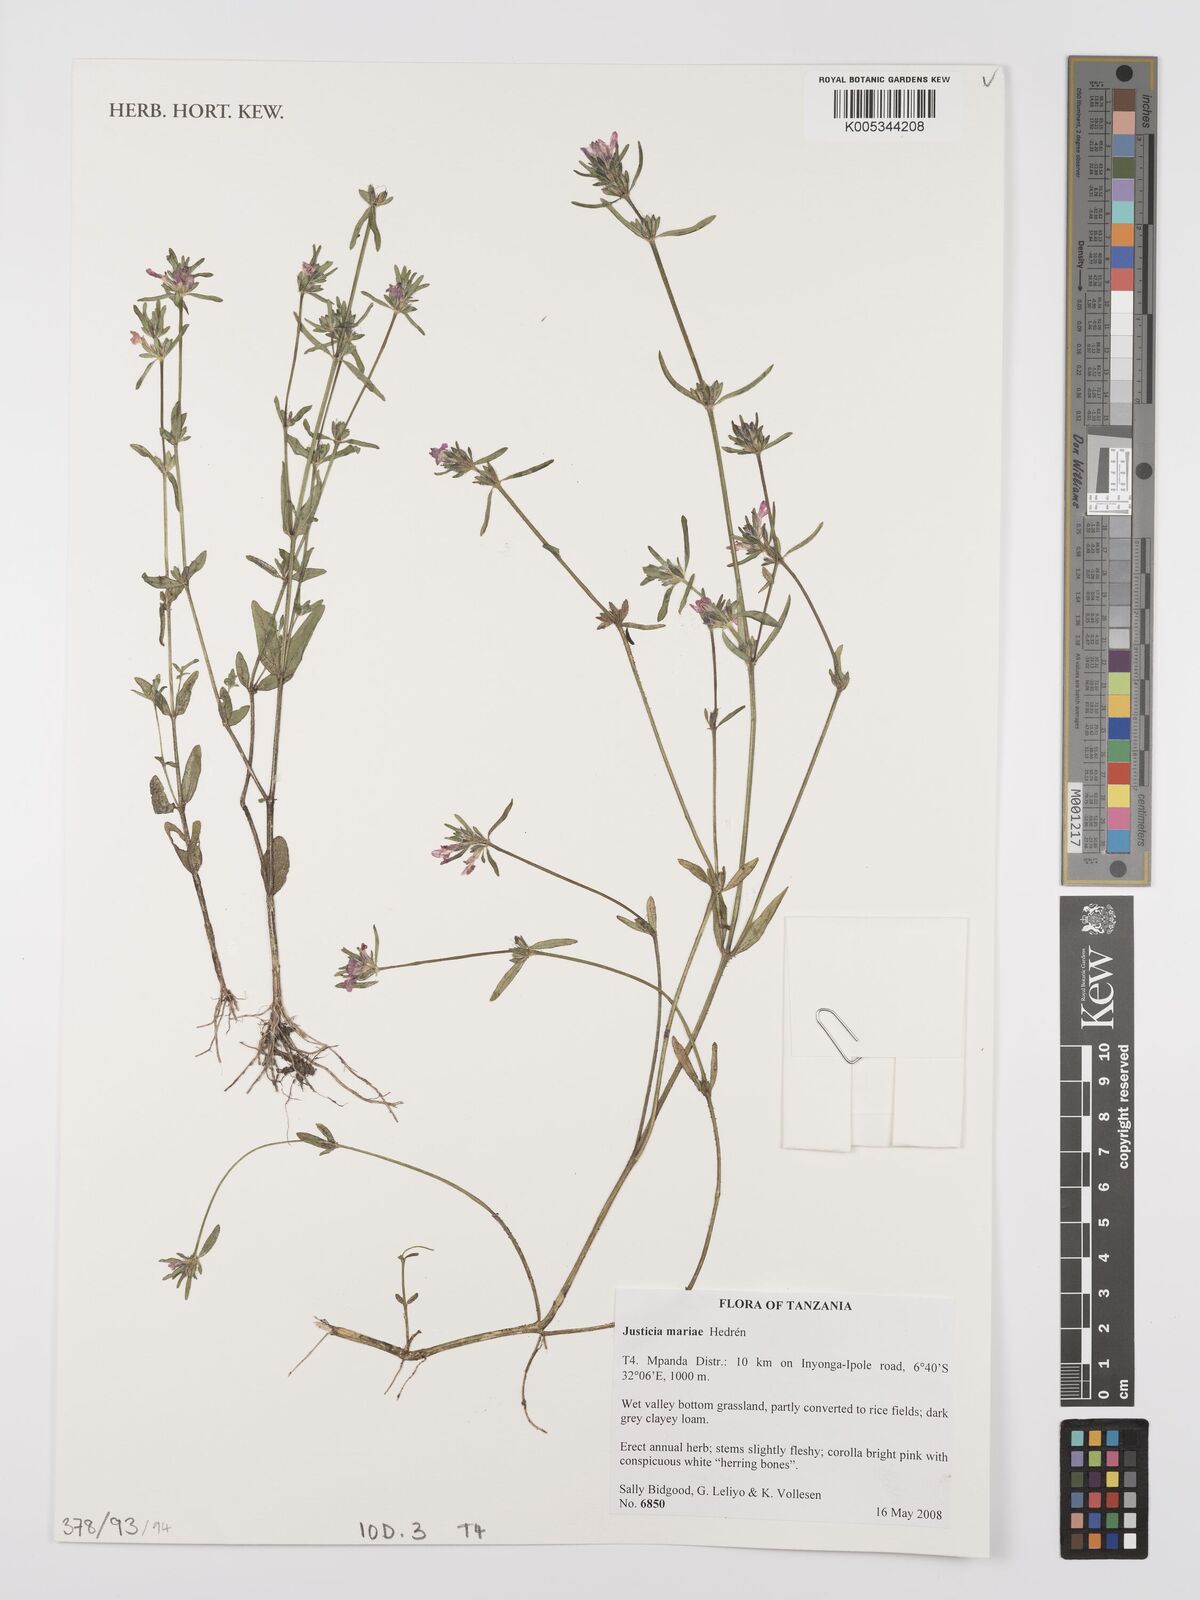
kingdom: Plantae
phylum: Tracheophyta
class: Magnoliopsida
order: Lamiales
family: Acanthaceae
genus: Justicia
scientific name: Justicia mariae
